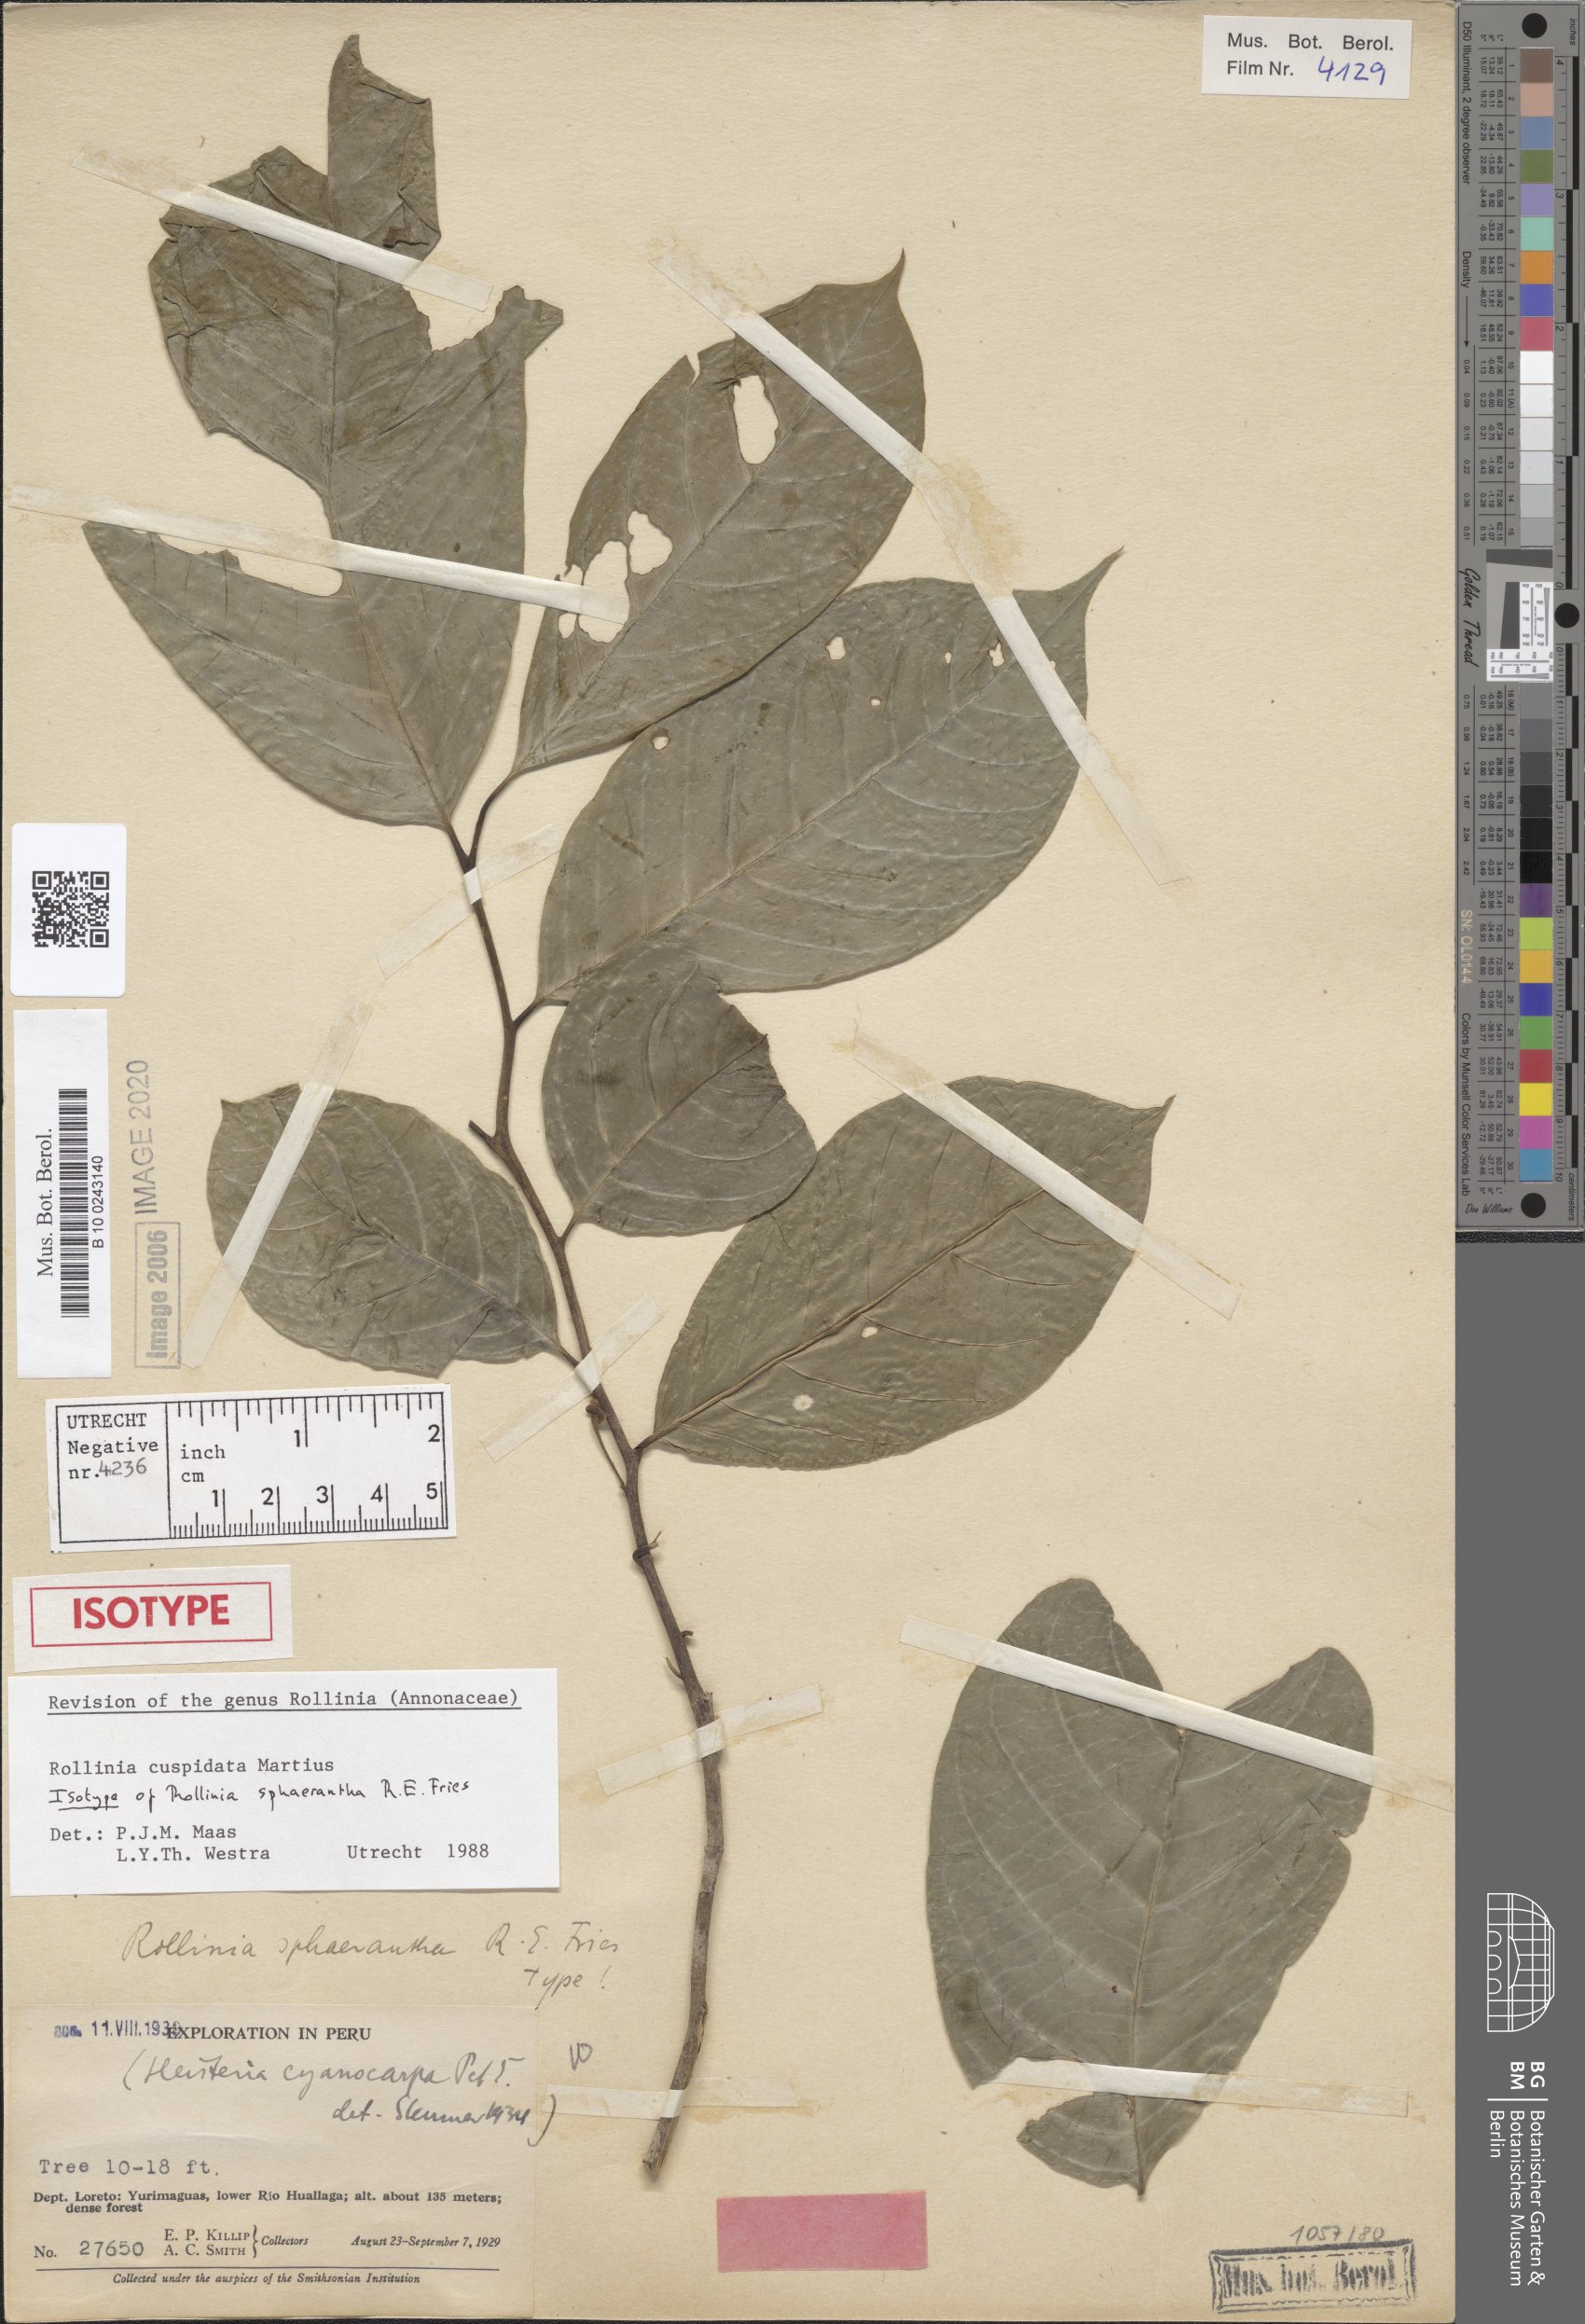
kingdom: Plantae
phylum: Tracheophyta
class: Magnoliopsida
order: Magnoliales
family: Annonaceae
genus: Annona
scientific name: Annona cuspidata
